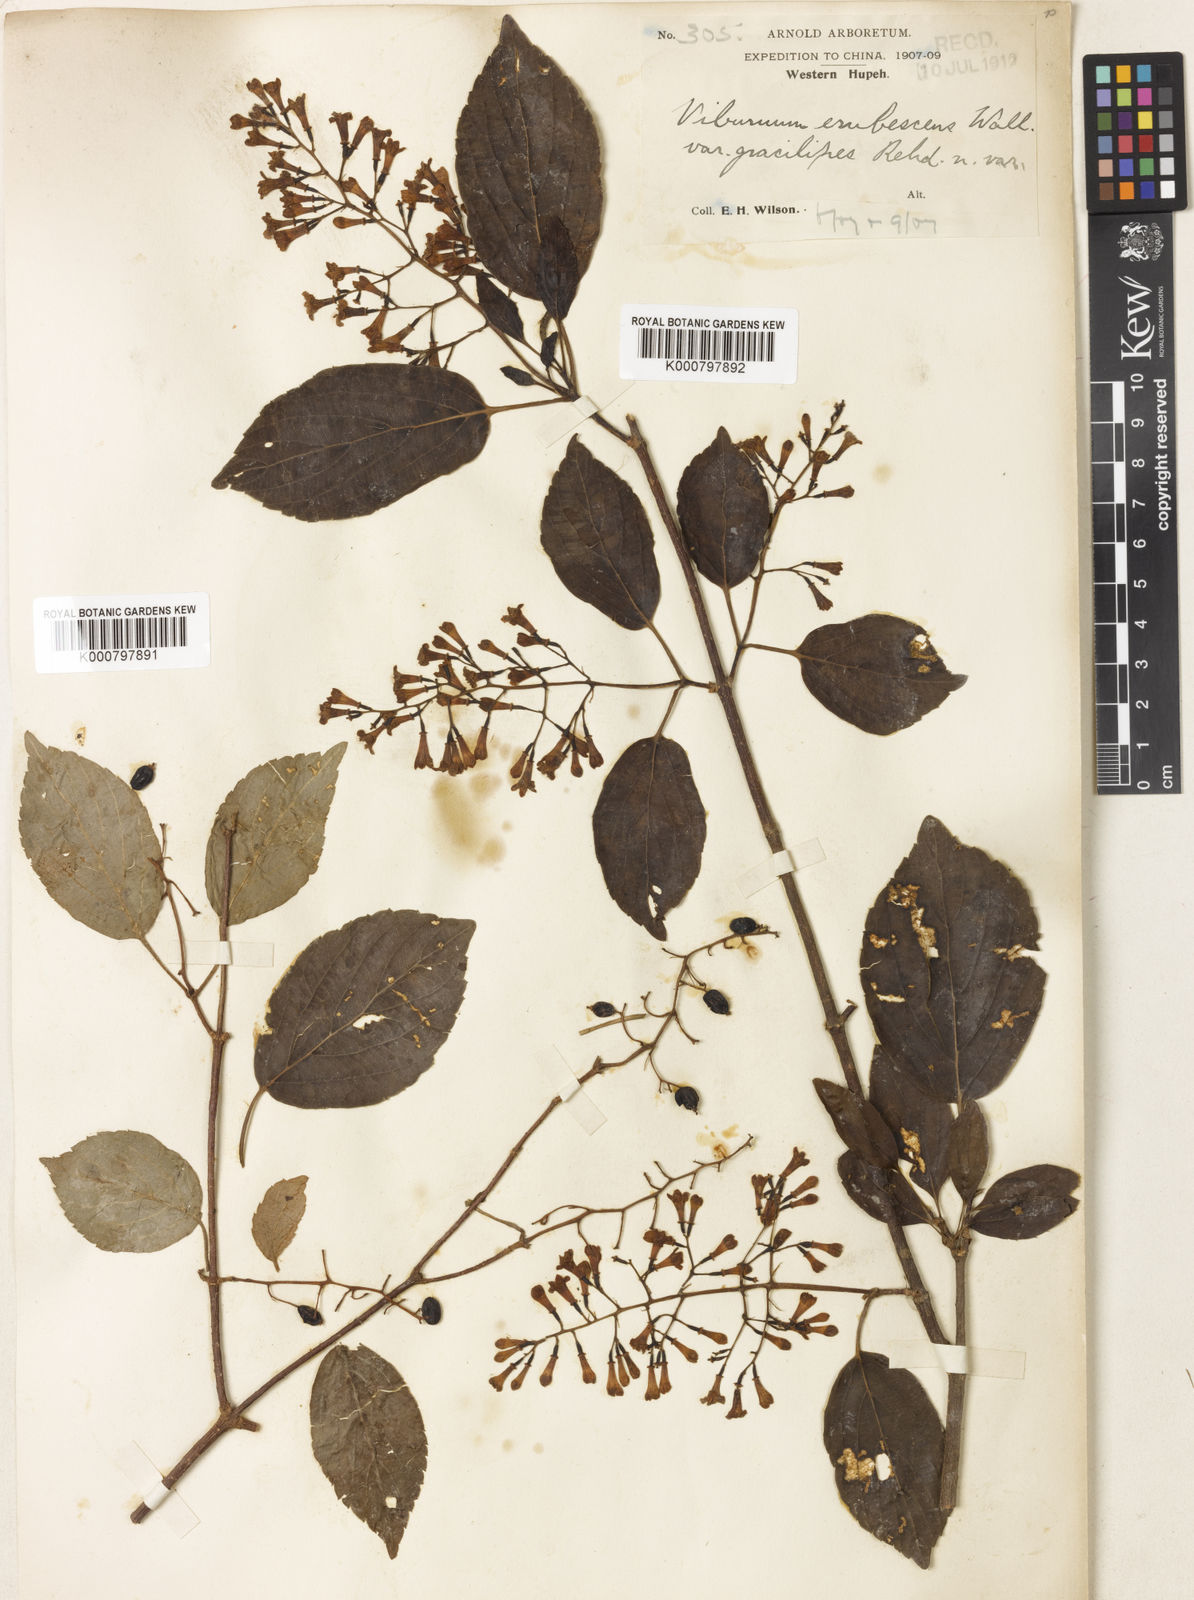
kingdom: Plantae
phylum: Tracheophyta
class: Magnoliopsida
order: Dipsacales
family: Viburnaceae
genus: Viburnum
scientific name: Viburnum
